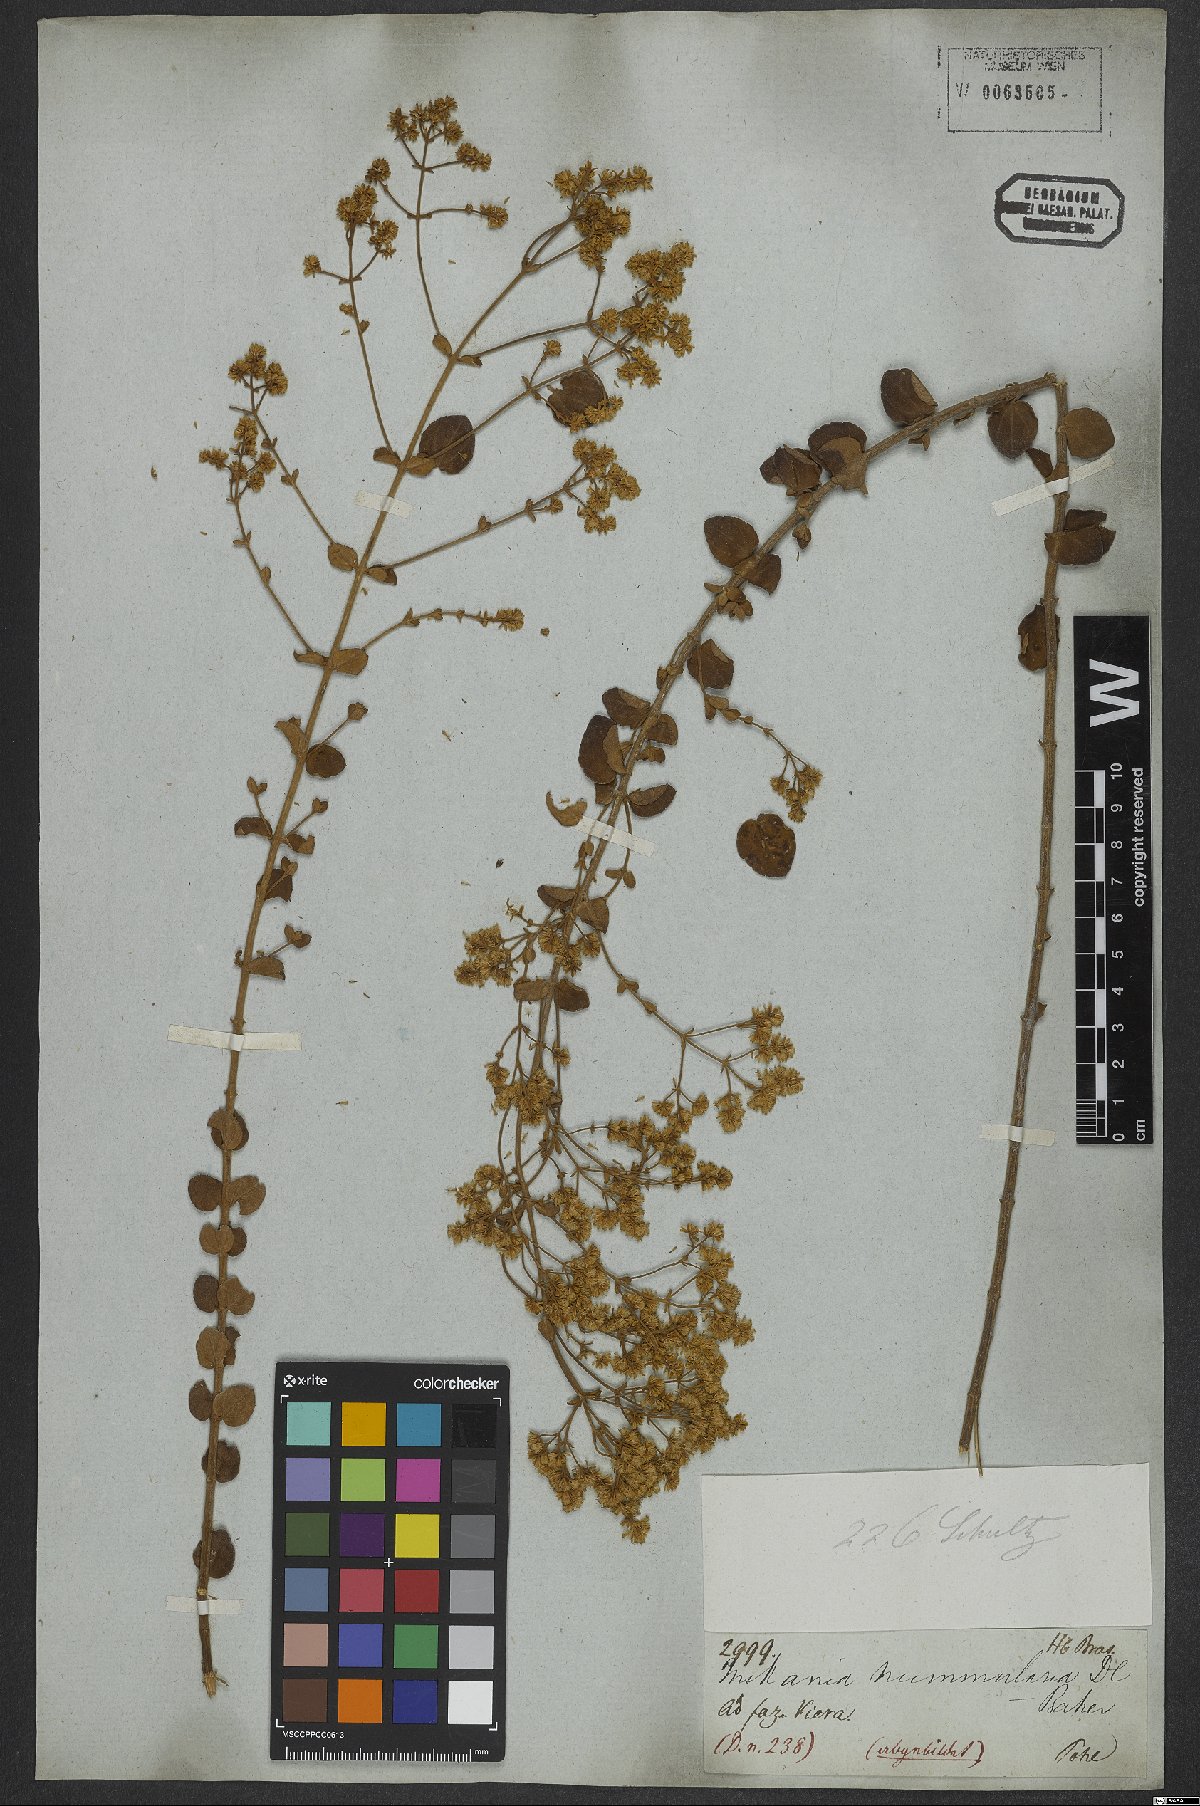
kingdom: Plantae
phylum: Tracheophyta
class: Magnoliopsida
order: Asterales
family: Asteraceae
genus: Mikania
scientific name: Mikania nummularia
